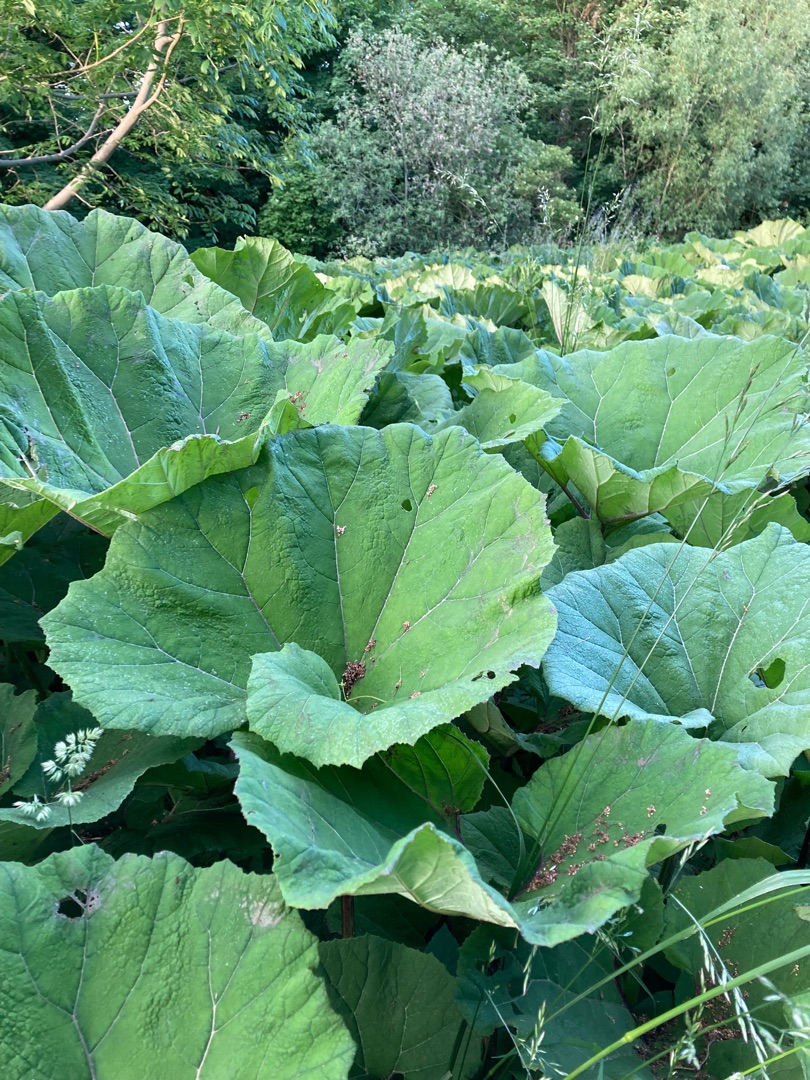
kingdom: Plantae
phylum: Tracheophyta
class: Magnoliopsida
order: Asterales
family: Asteraceae
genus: Petasites
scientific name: Petasites hybridus
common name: Rød hestehov
